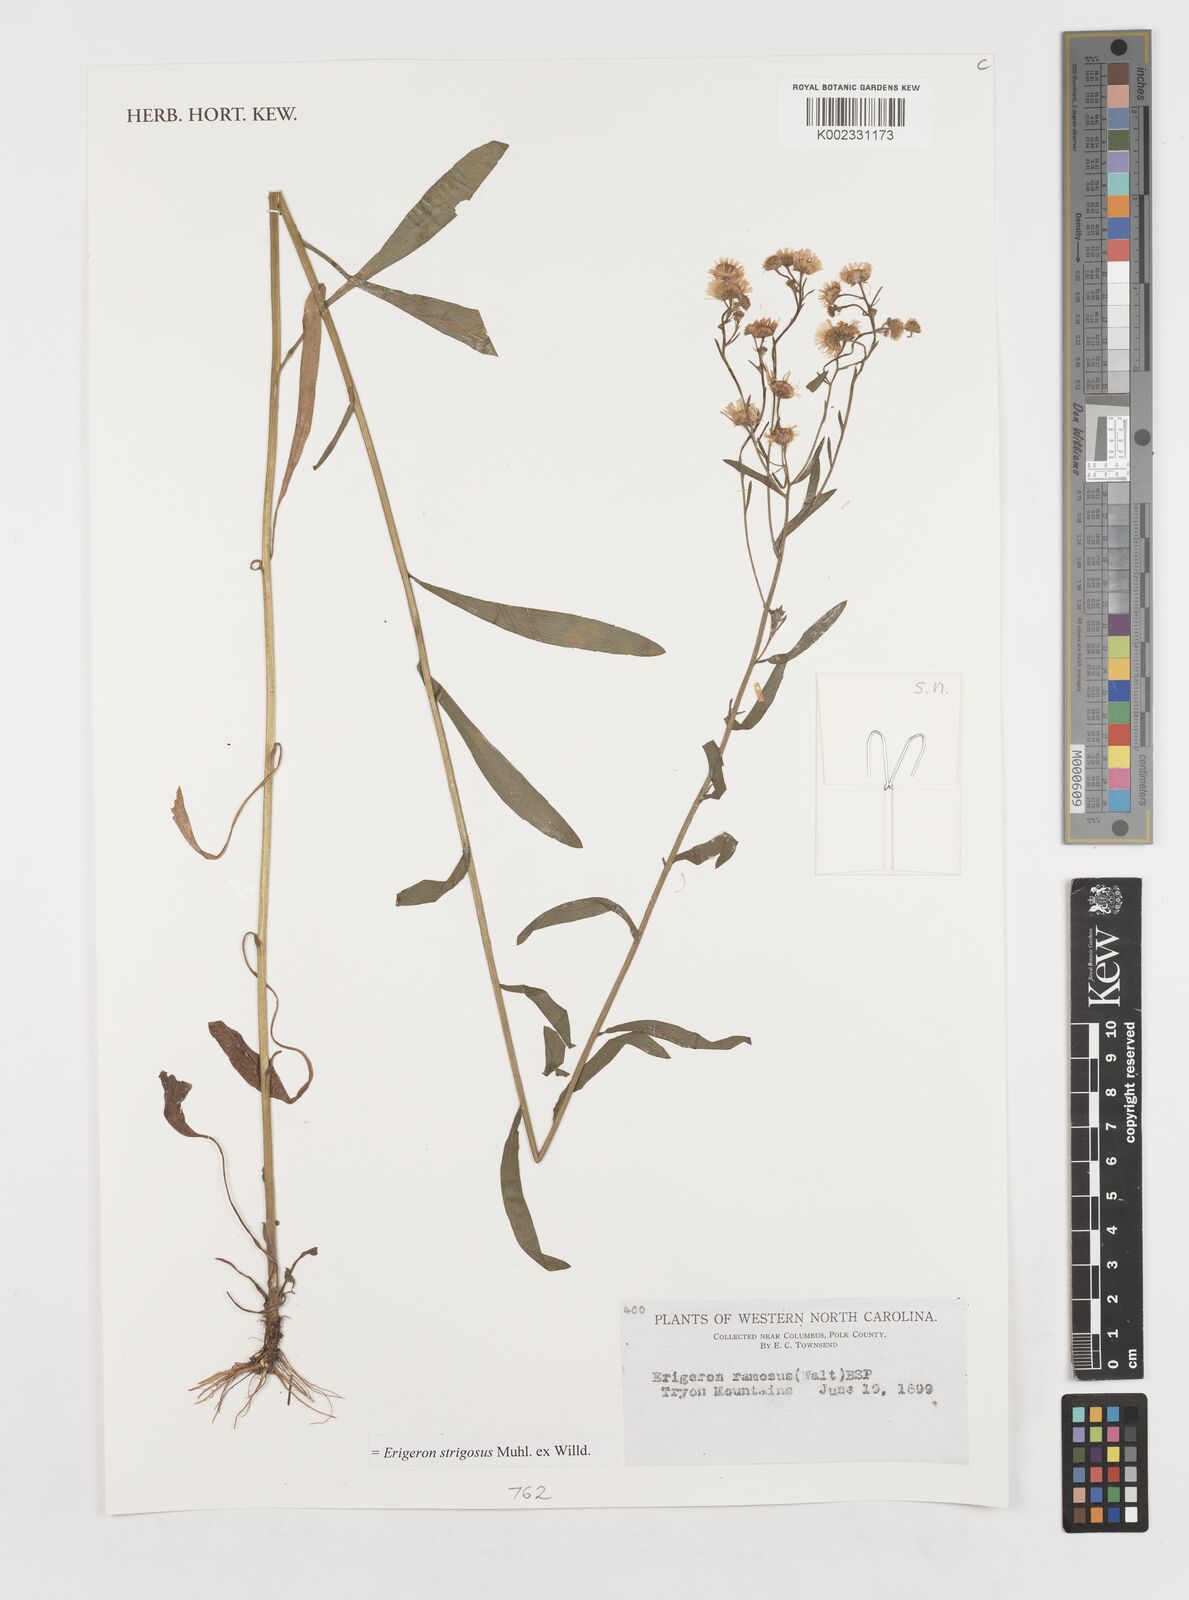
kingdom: Plantae
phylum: Tracheophyta
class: Magnoliopsida
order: Asterales
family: Asteraceae
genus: Erigeron
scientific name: Erigeron strigosus
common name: Common eastern fleabane
